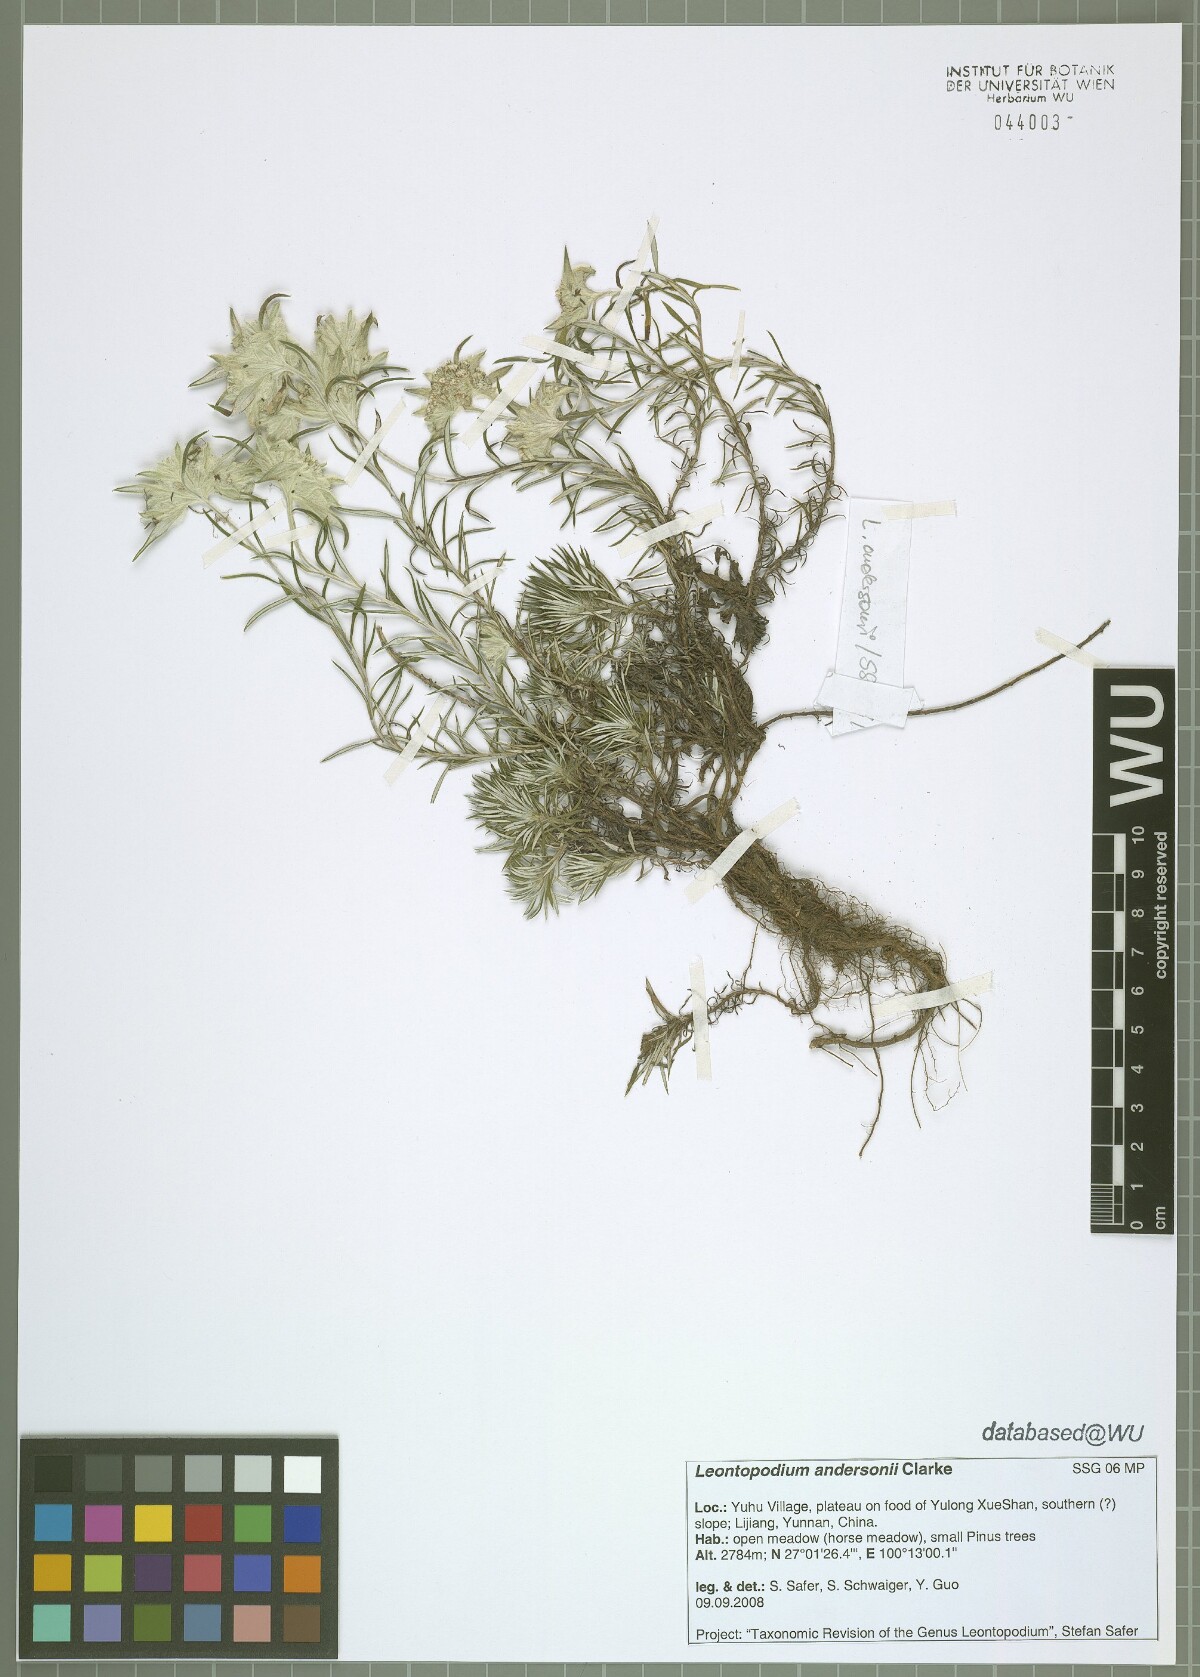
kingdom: Plantae
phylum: Tracheophyta
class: Magnoliopsida
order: Asterales
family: Asteraceae
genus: Leontopodium
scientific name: Leontopodium andersonii
